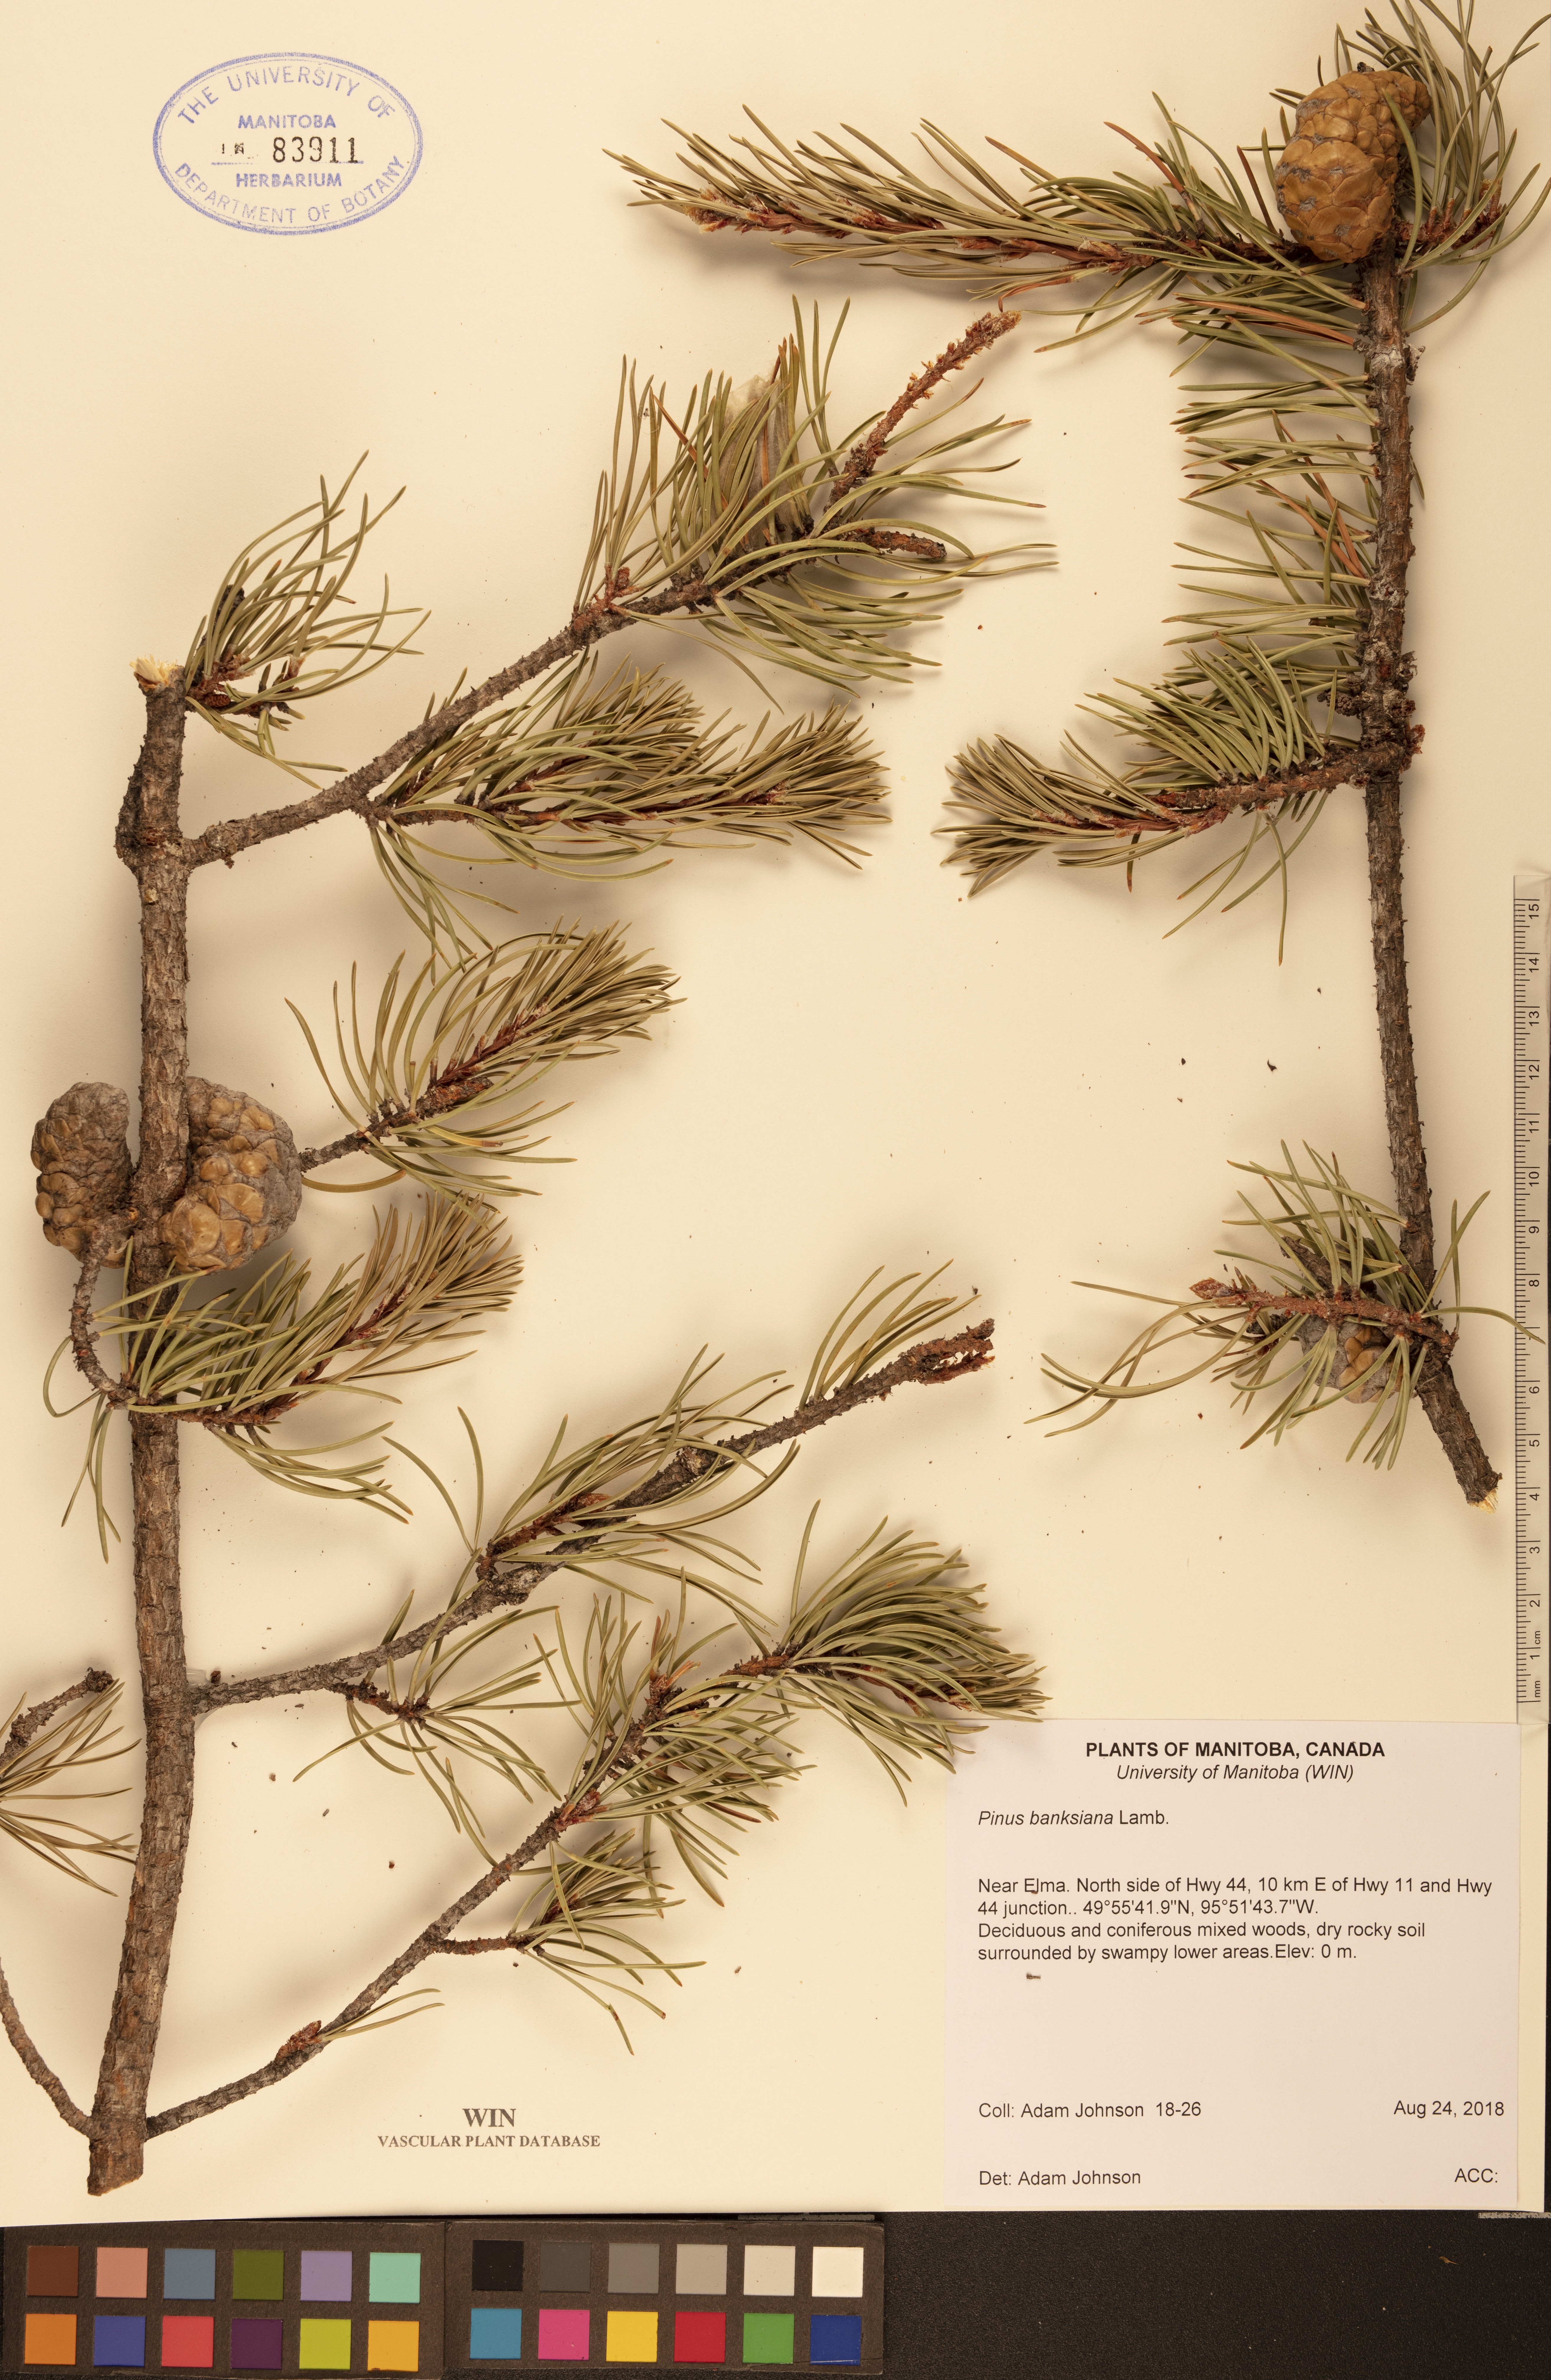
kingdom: Plantae
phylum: Tracheophyta
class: Pinopsida
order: Pinales
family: Pinaceae
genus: Pinus
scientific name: Pinus banksiana
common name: Jack pine
